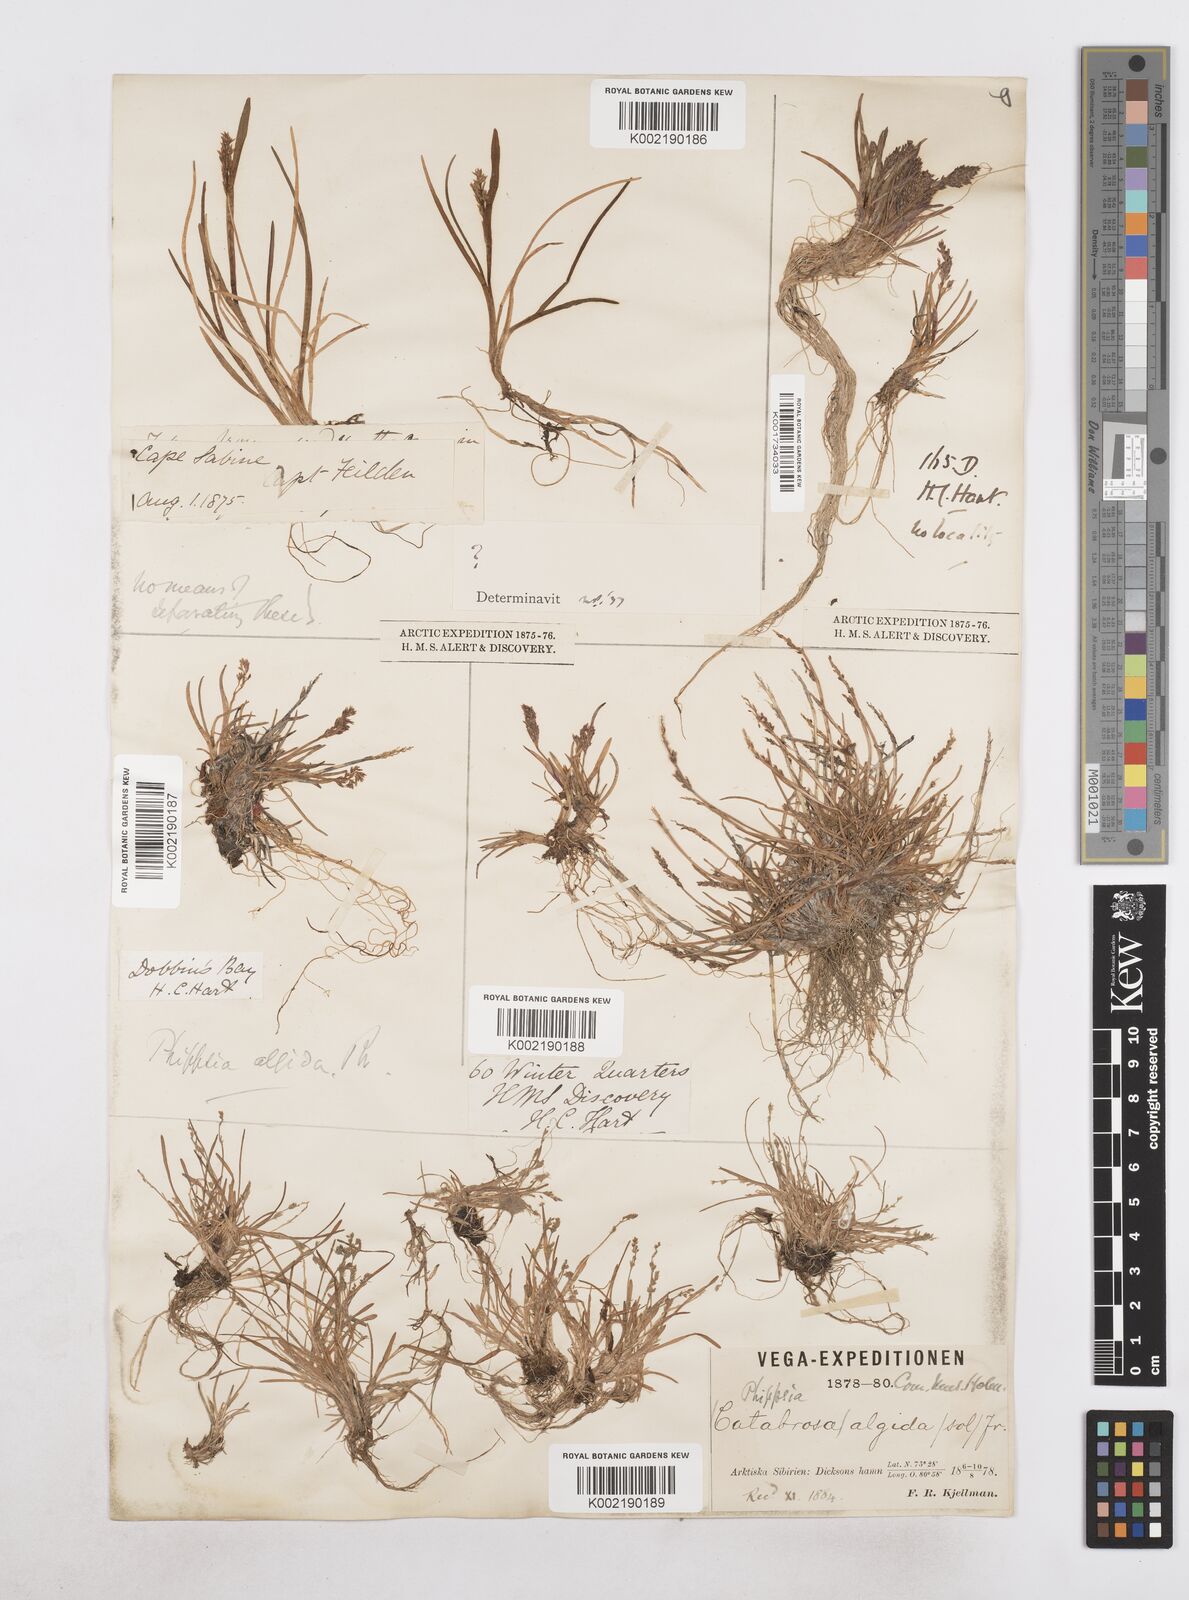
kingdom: Plantae
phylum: Tracheophyta
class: Liliopsida
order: Poales
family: Poaceae
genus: Phippsia
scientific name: Phippsia algida
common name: Ice grass
